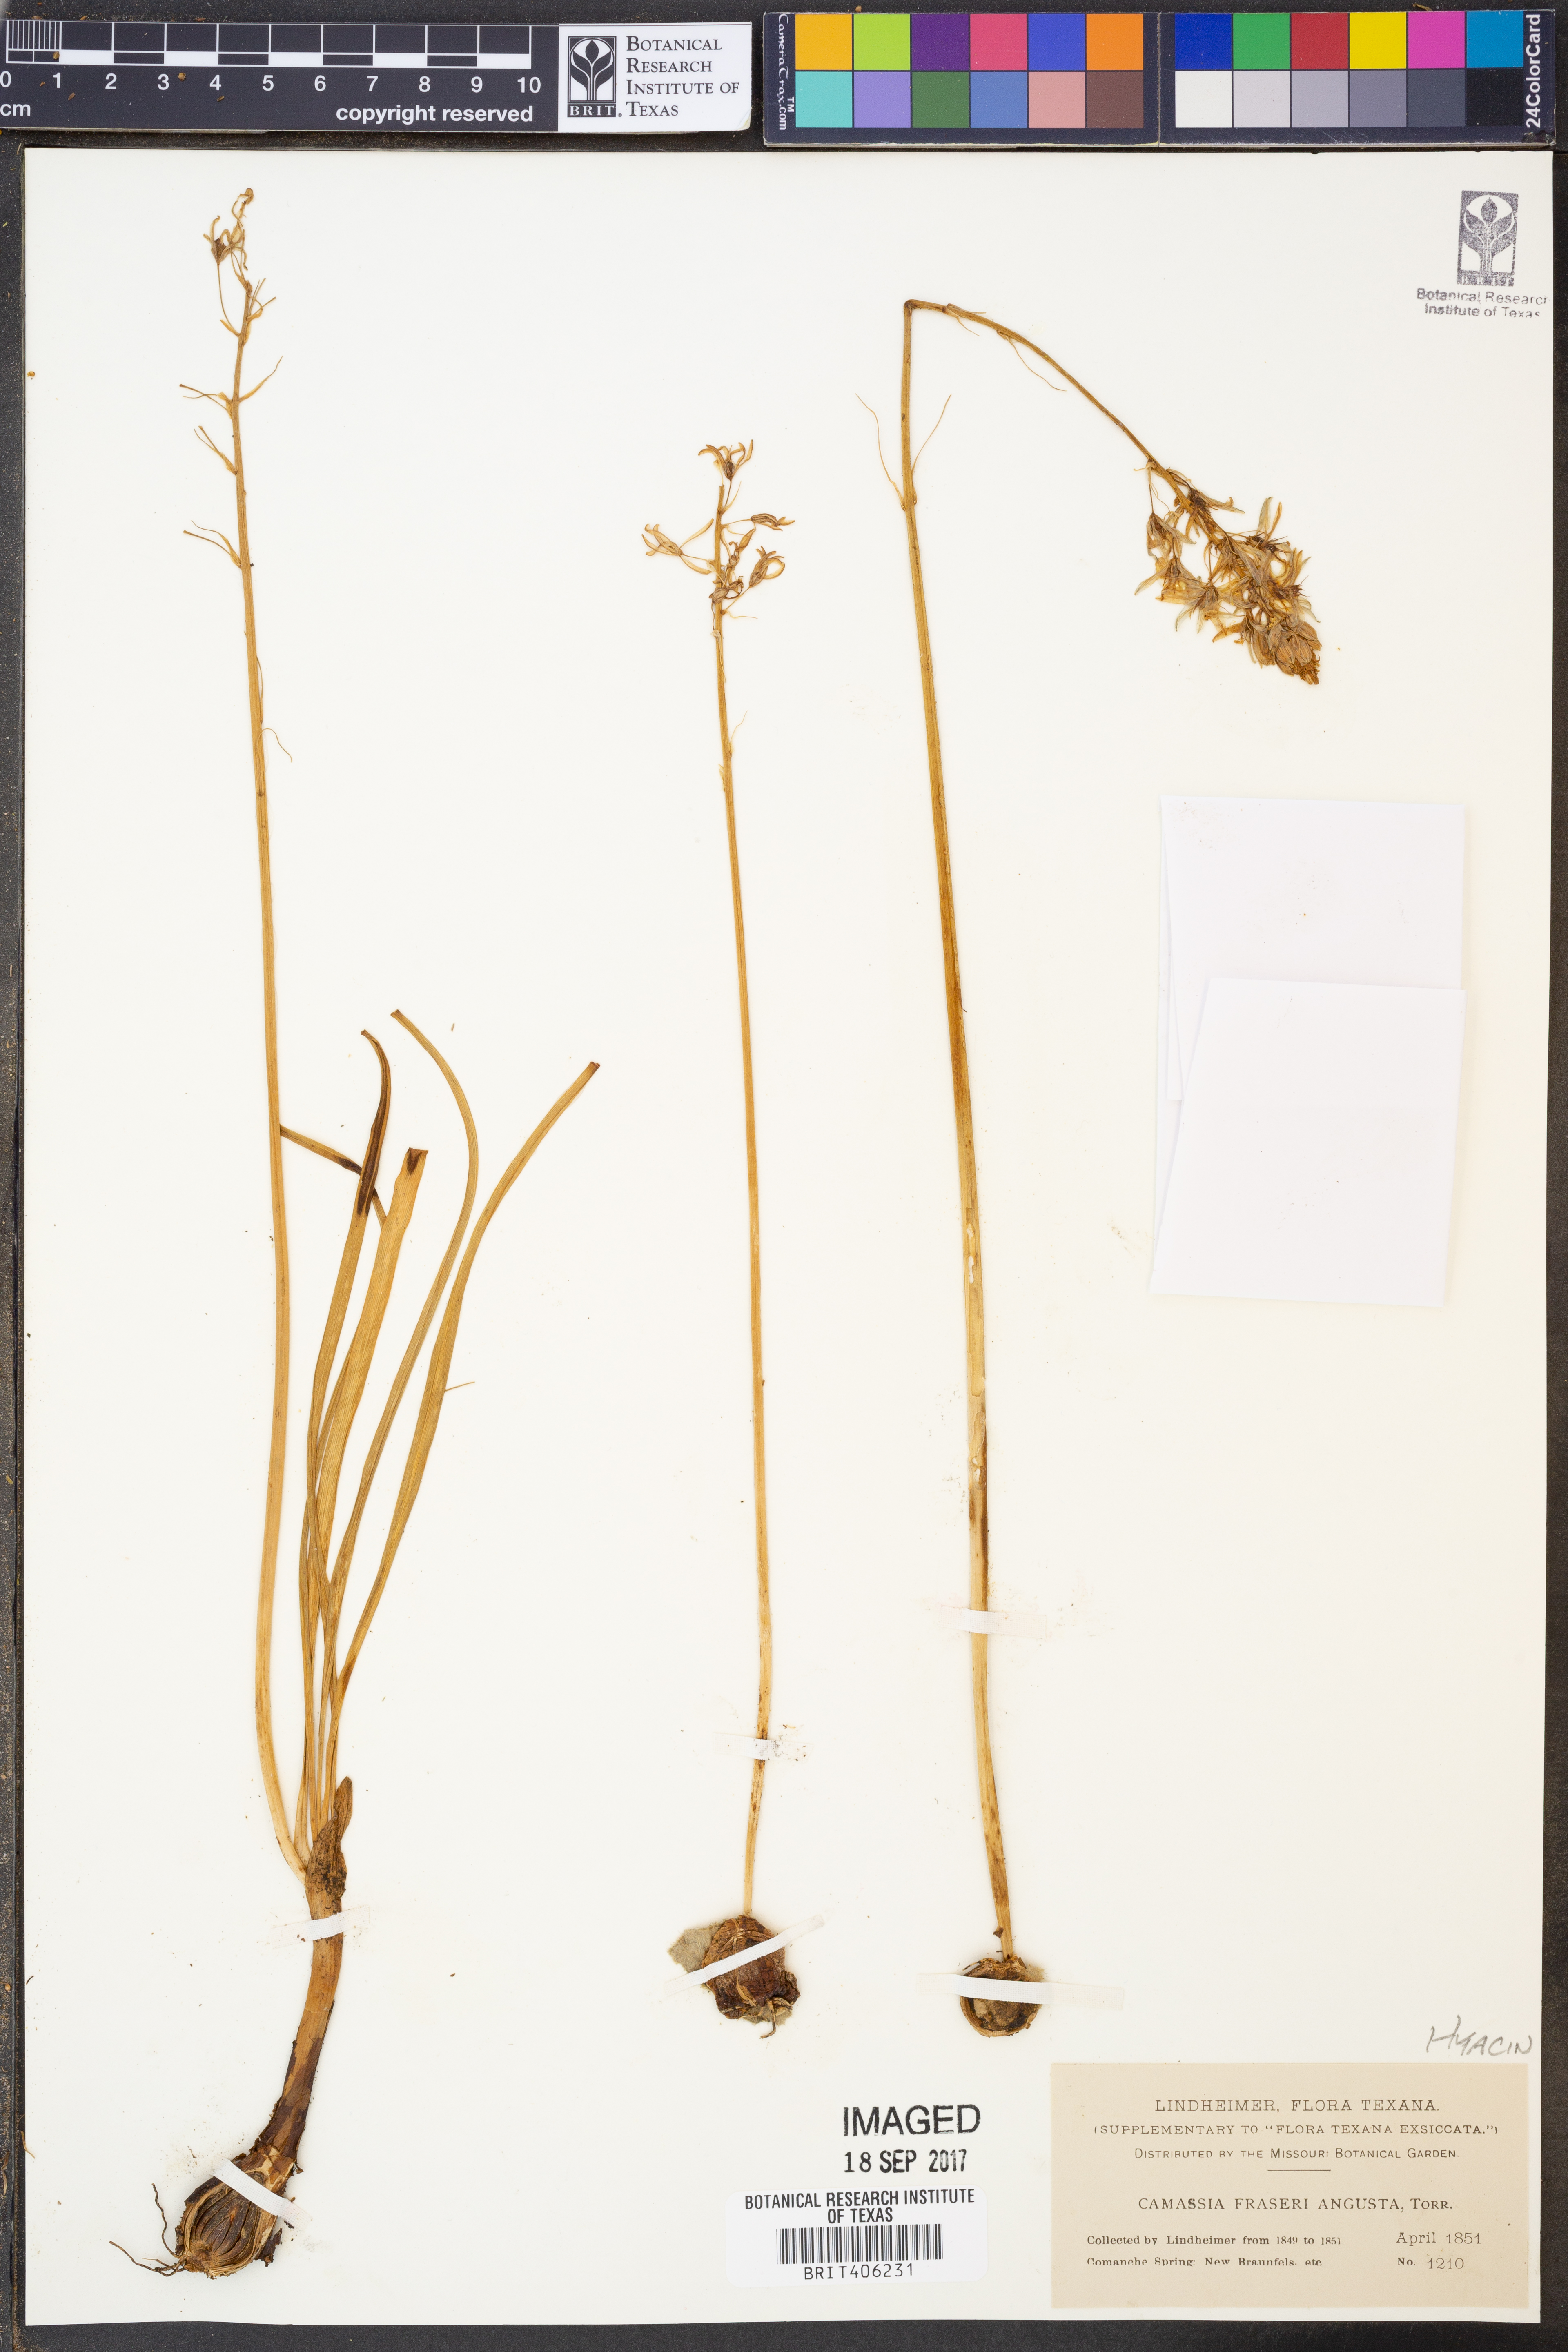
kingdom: Plantae
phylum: Tracheophyta
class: Liliopsida
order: Asparagales
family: Asparagaceae
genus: Camassia
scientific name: Camassia angusta
